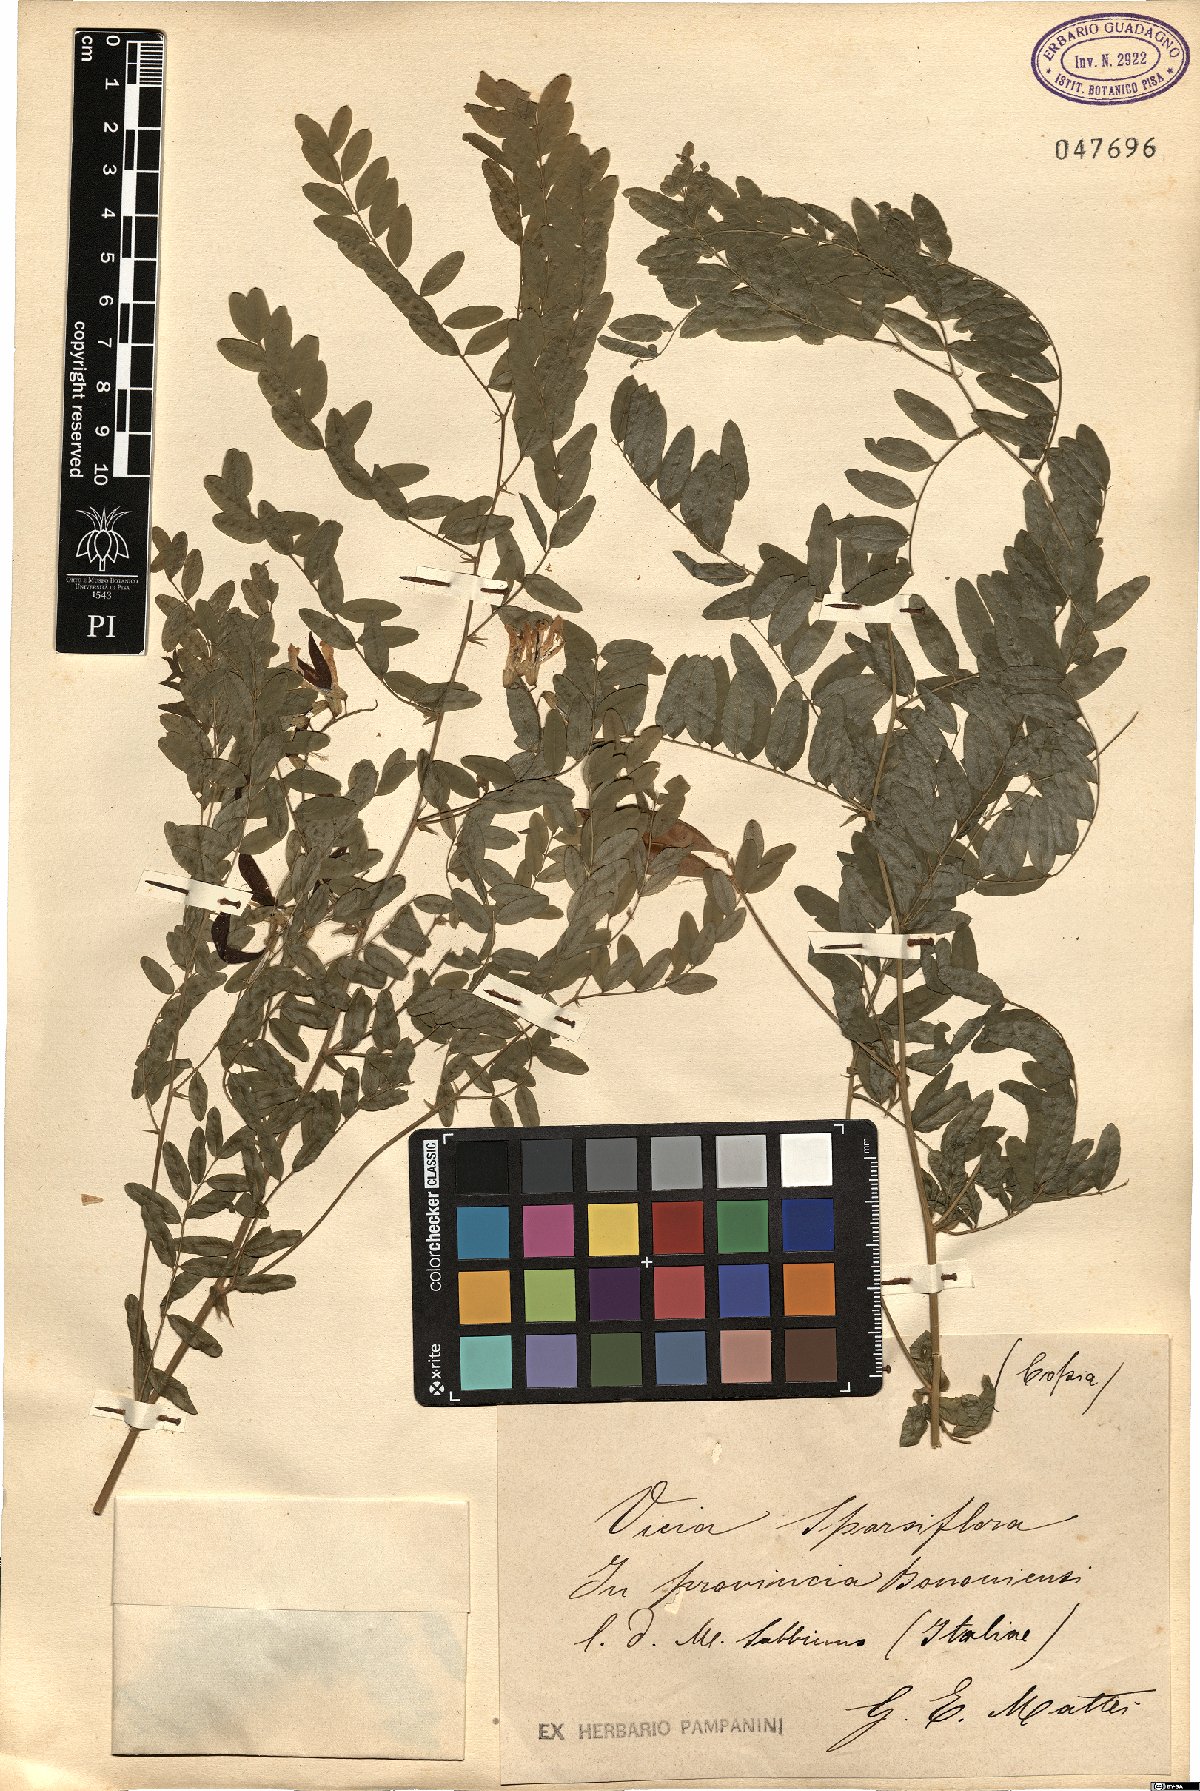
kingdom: Plantae
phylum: Tracheophyta
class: Magnoliopsida
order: Fabales
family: Fabaceae
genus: Vicia
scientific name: Vicia sparsiflora
